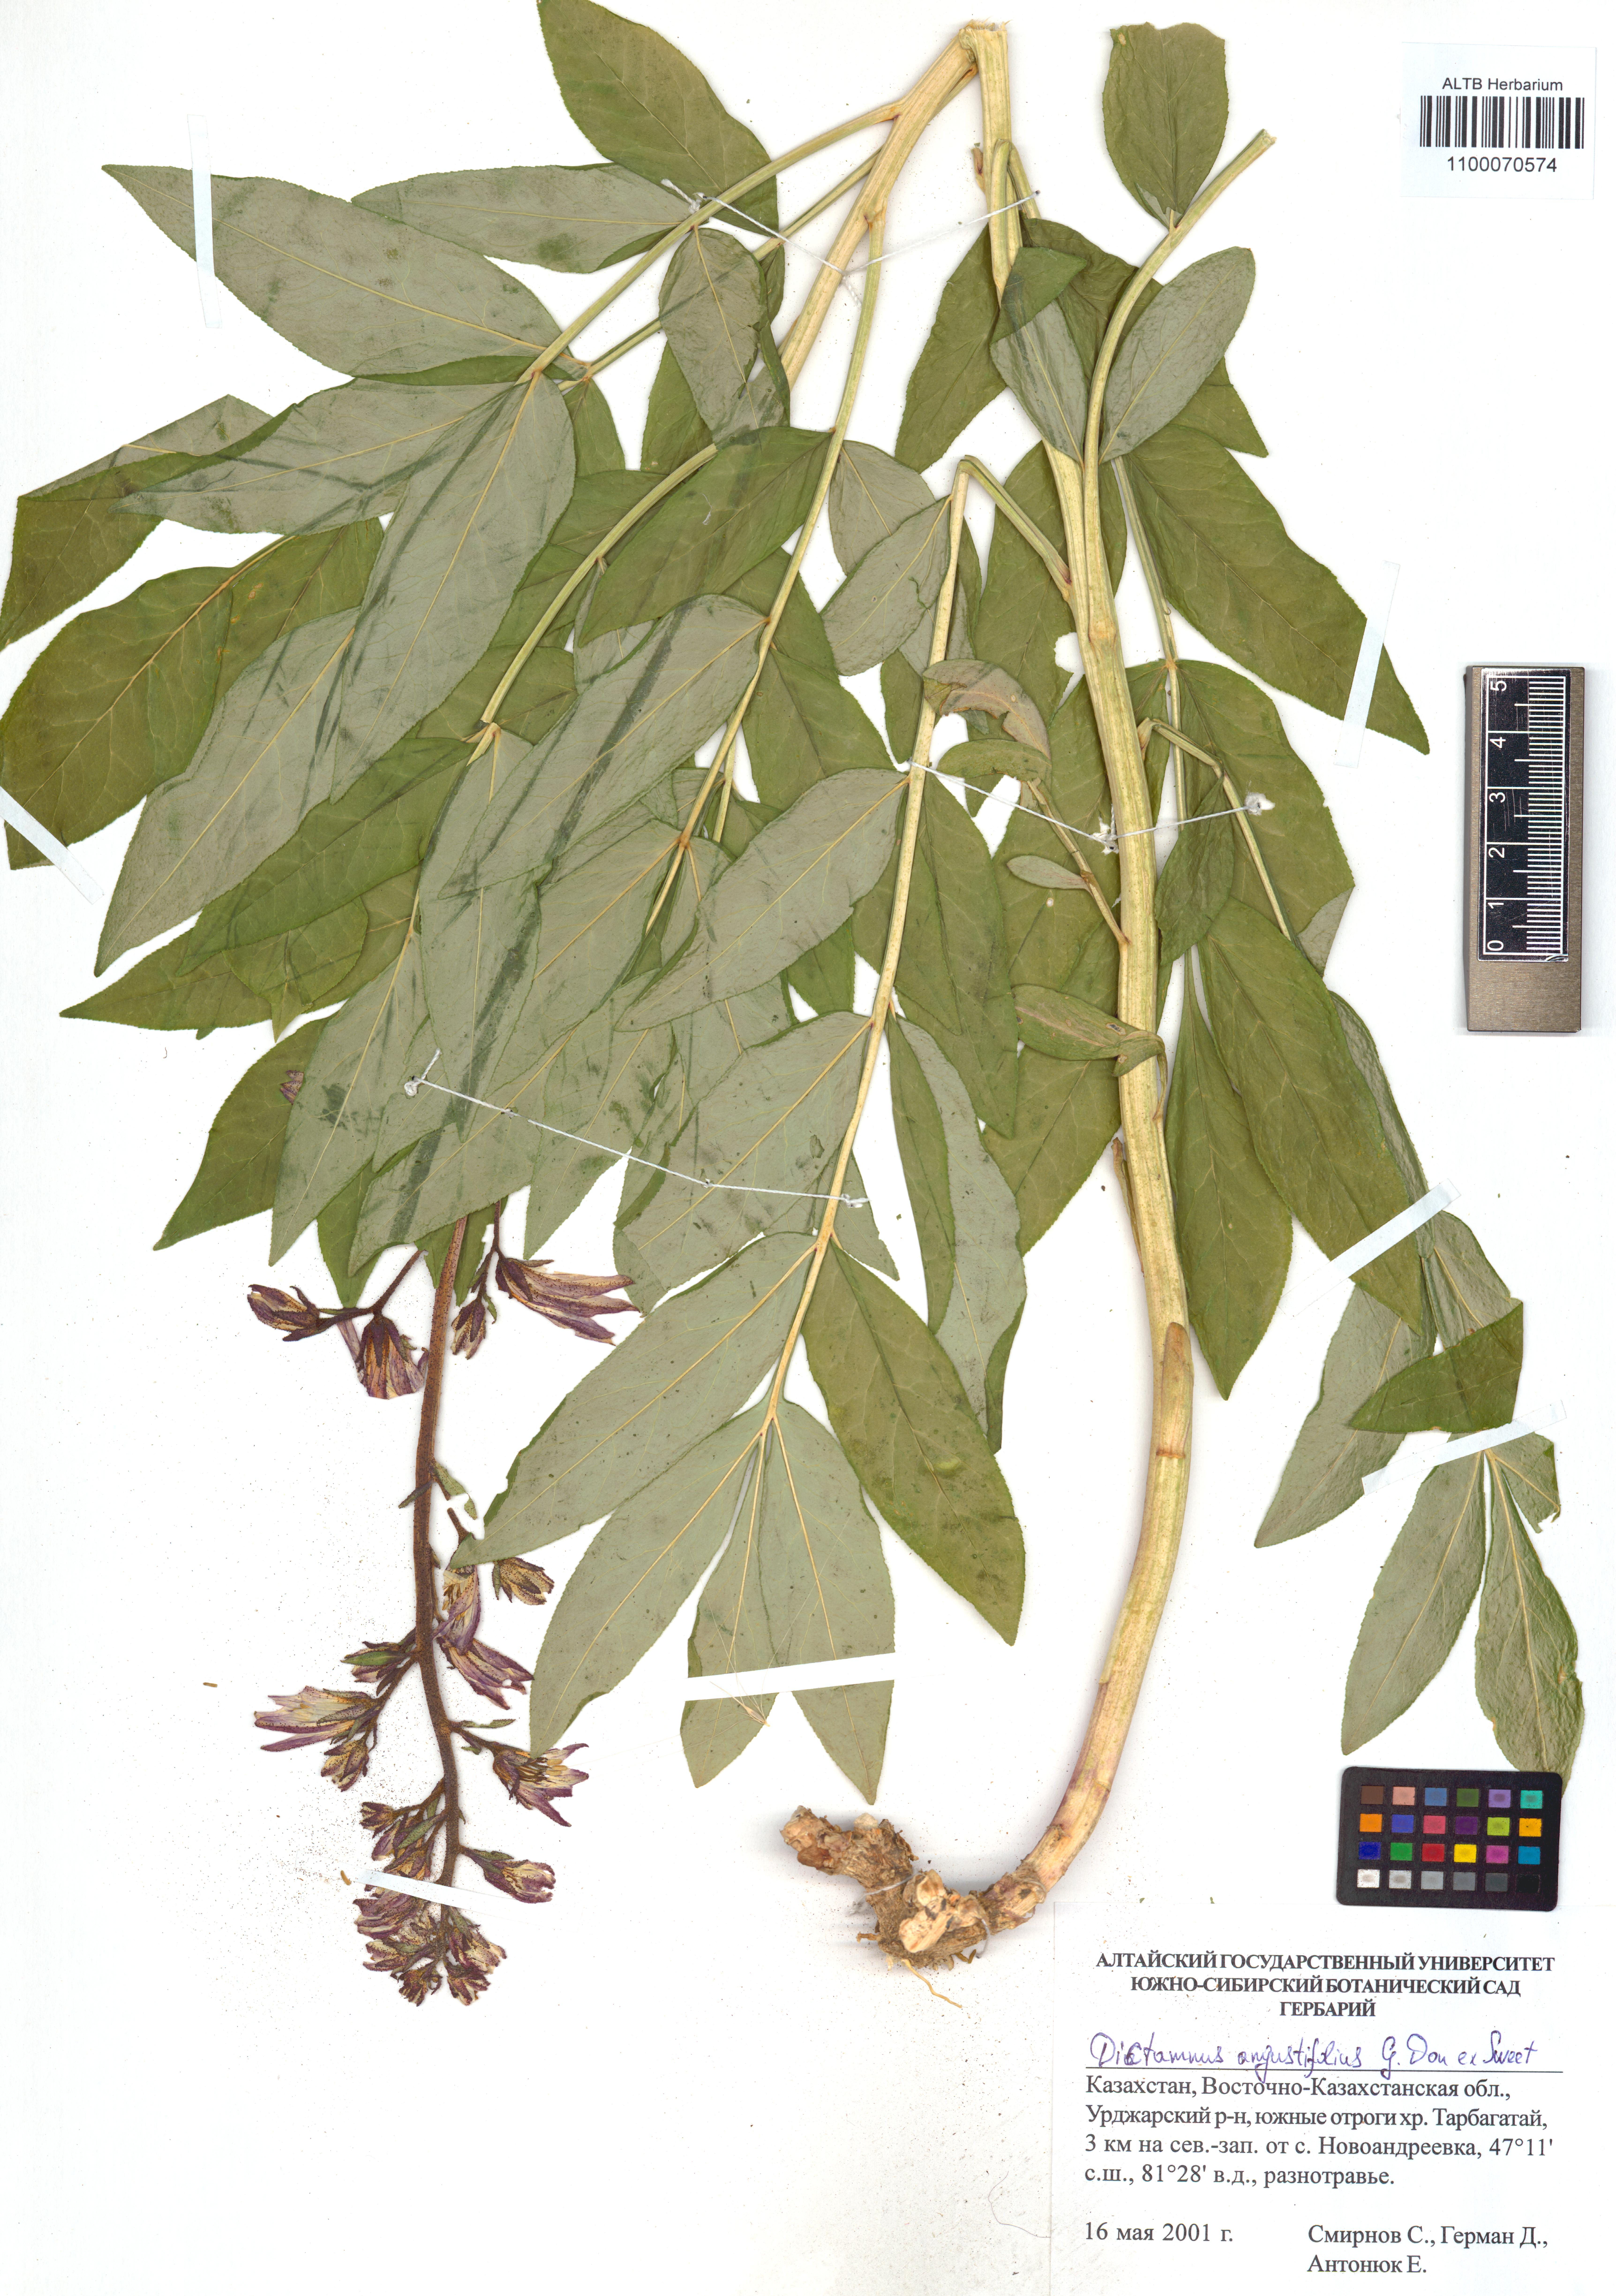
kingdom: Plantae
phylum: Tracheophyta
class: Magnoliopsida
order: Sapindales
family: Rutaceae
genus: Dictamnus
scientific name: Dictamnus albus
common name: Gasplant
